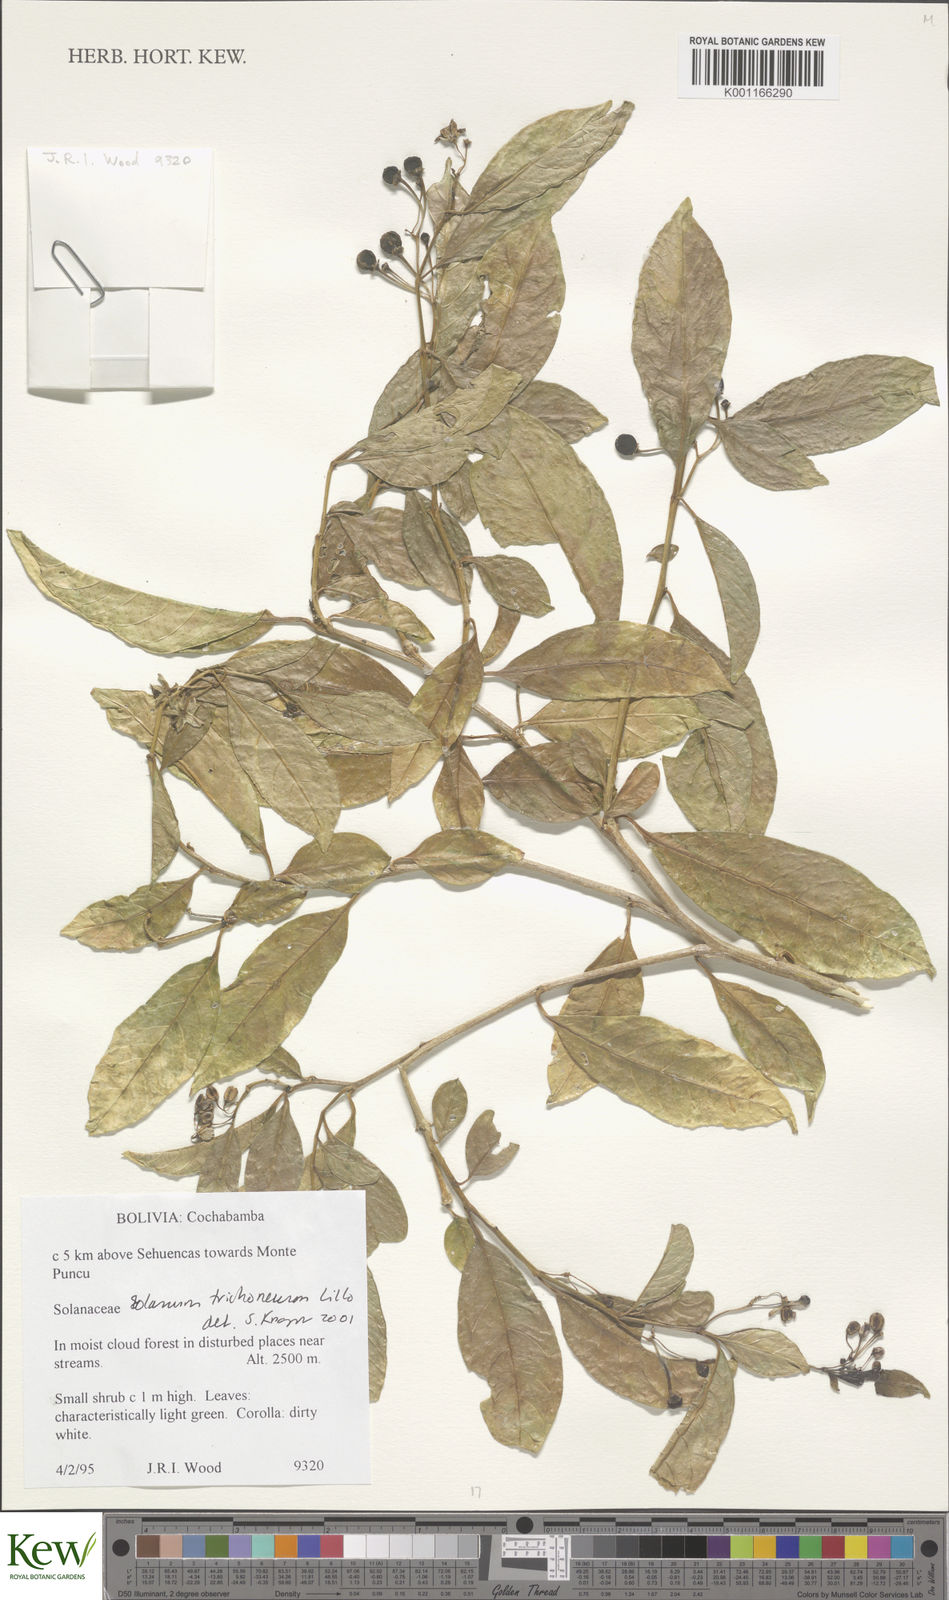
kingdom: Plantae
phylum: Tracheophyta
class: Magnoliopsida
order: Solanales
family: Solanaceae
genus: Solanum
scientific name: Solanum oblongum
